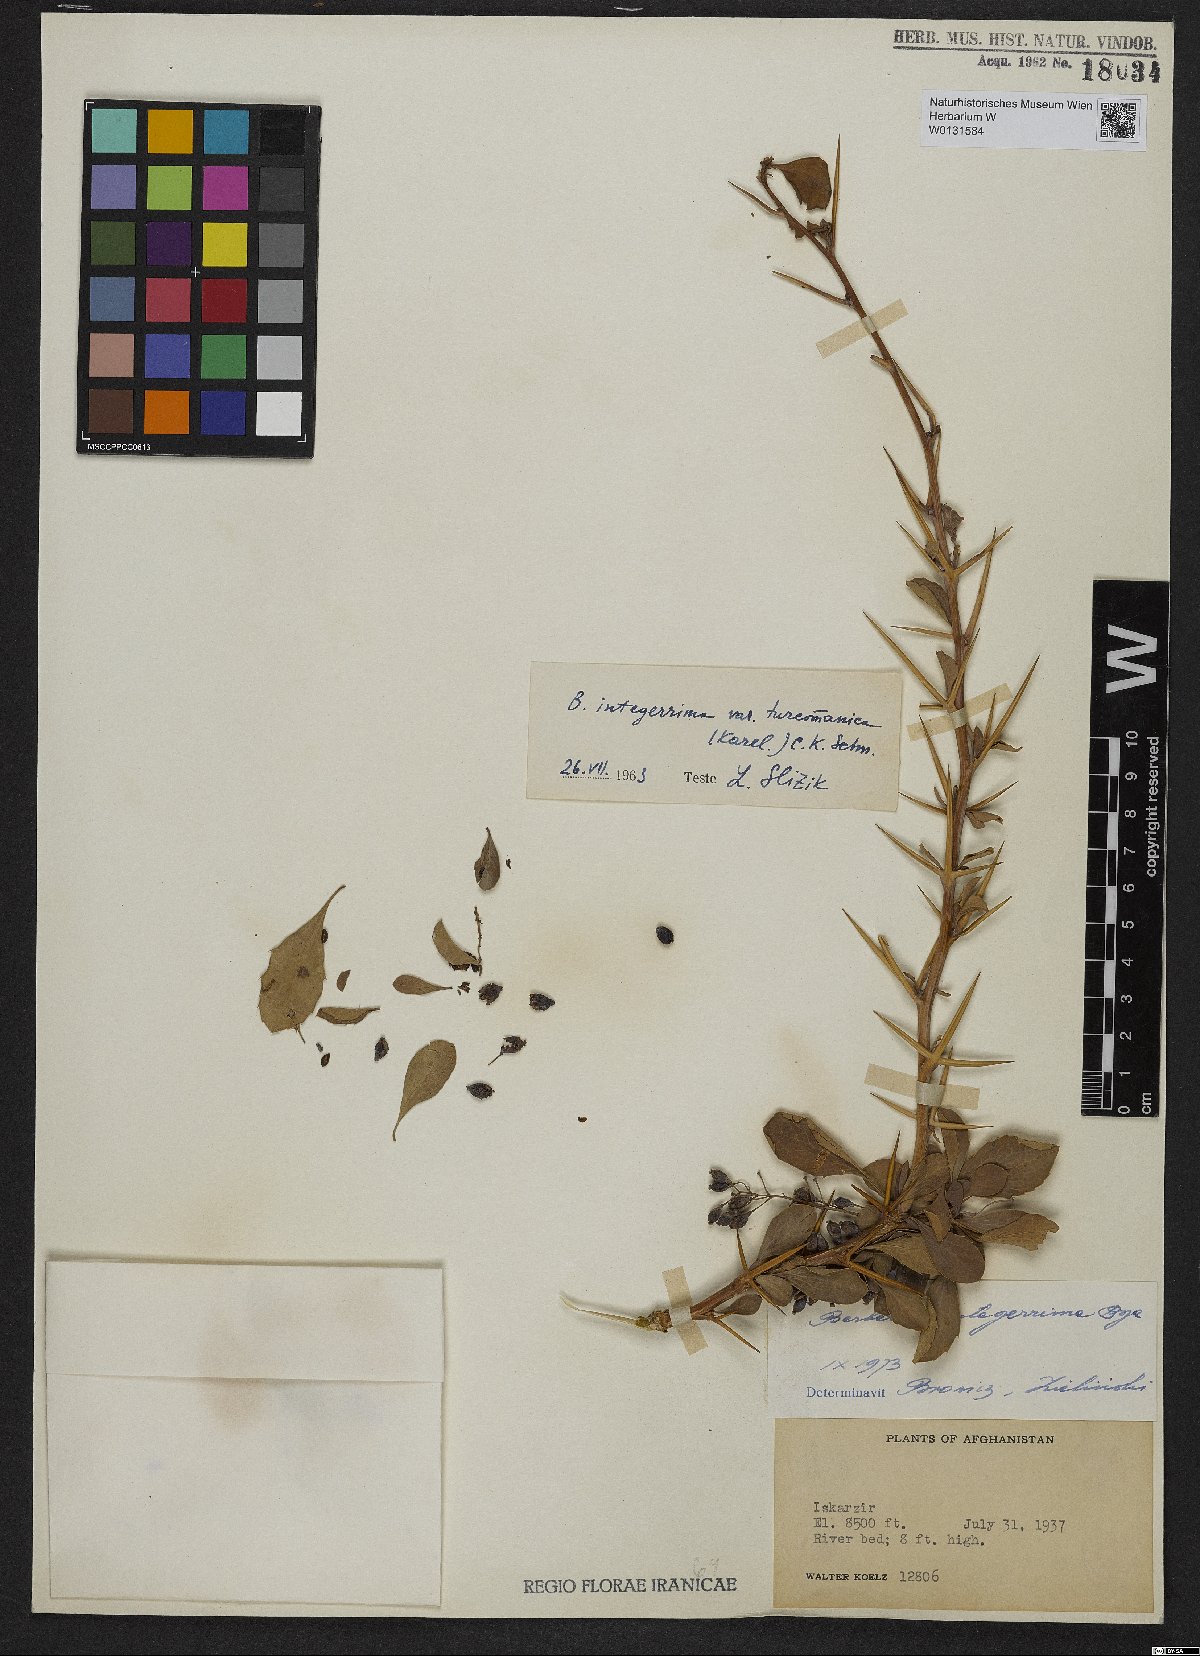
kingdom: Plantae
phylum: Tracheophyta
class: Magnoliopsida
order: Ranunculales
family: Berberidaceae
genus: Berberis
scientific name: Berberis integerrima
